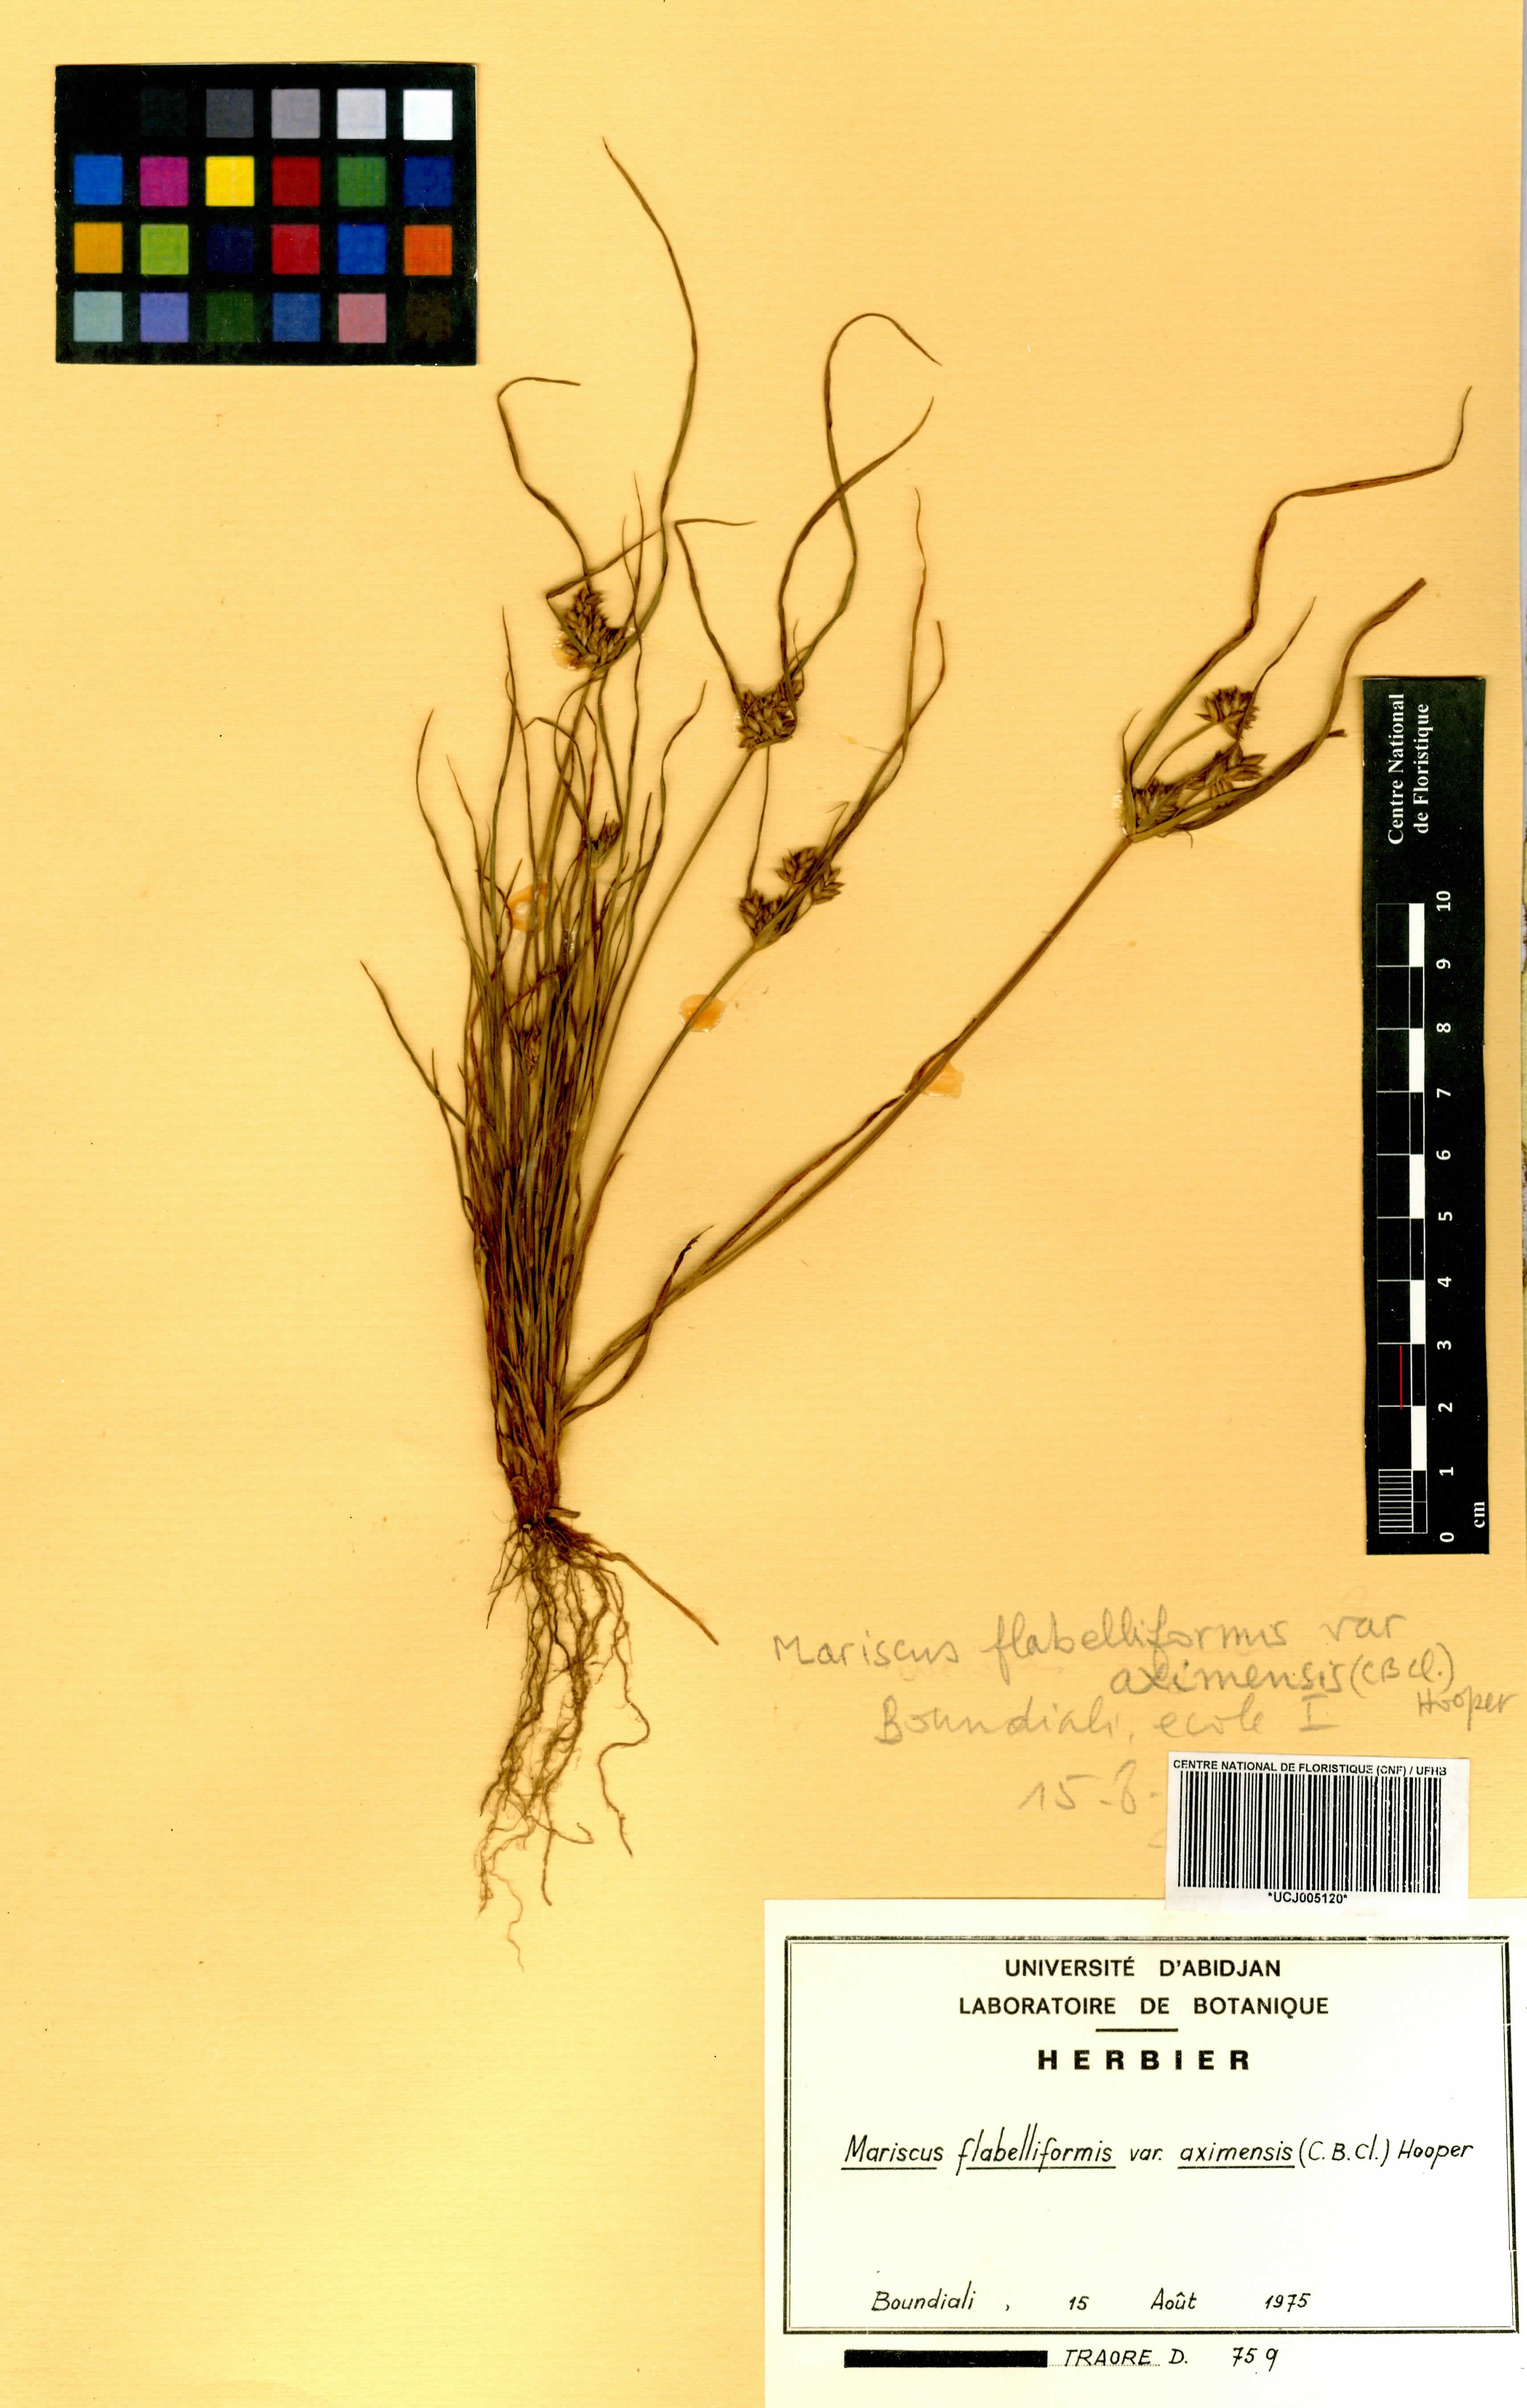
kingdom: Plantae
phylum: Tracheophyta
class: Liliopsida
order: Poales
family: Cyperaceae
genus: Cyperus
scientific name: Cyperus tenuis
